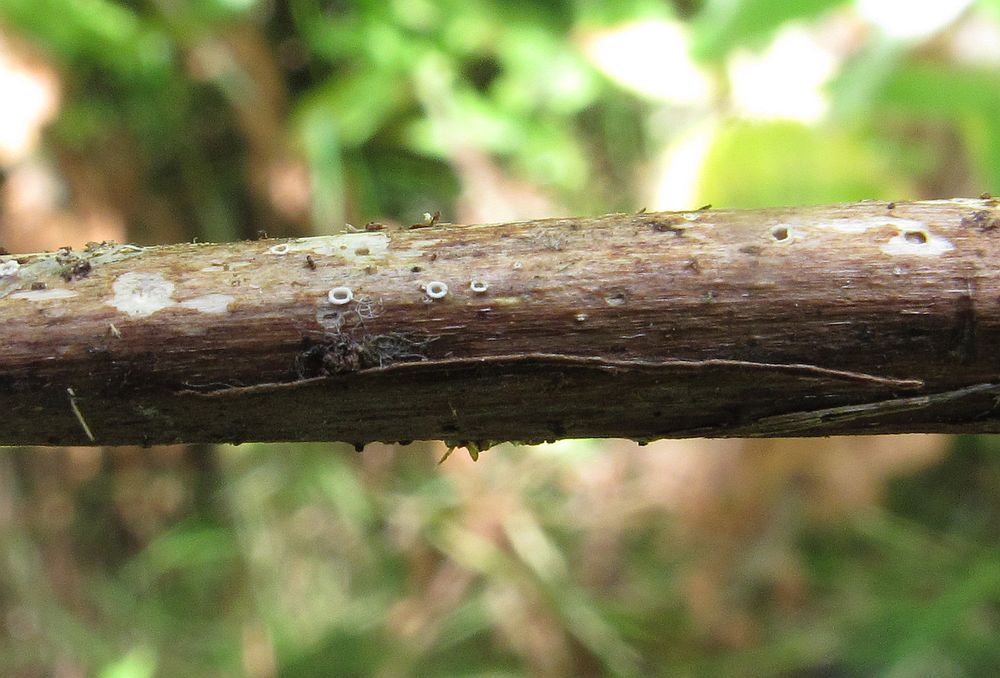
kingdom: Fungi
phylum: Ascomycota
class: Lecanoromycetes
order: Ostropales
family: Stictidaceae
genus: Stictis
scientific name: Stictis stellata
